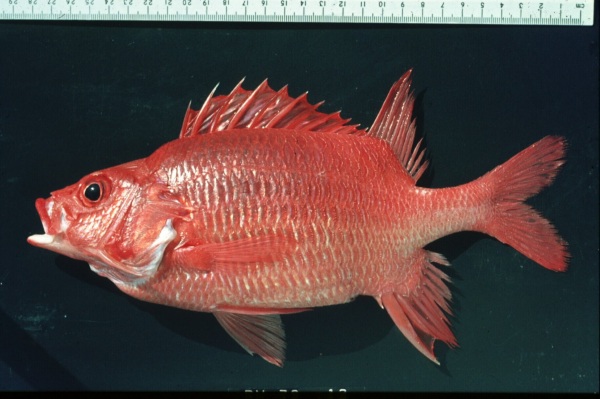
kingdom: Animalia
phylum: Chordata
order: Beryciformes
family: Holocentridae
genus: Sargocentron
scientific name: Sargocentron caudimaculatum
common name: Fanfin soldier
